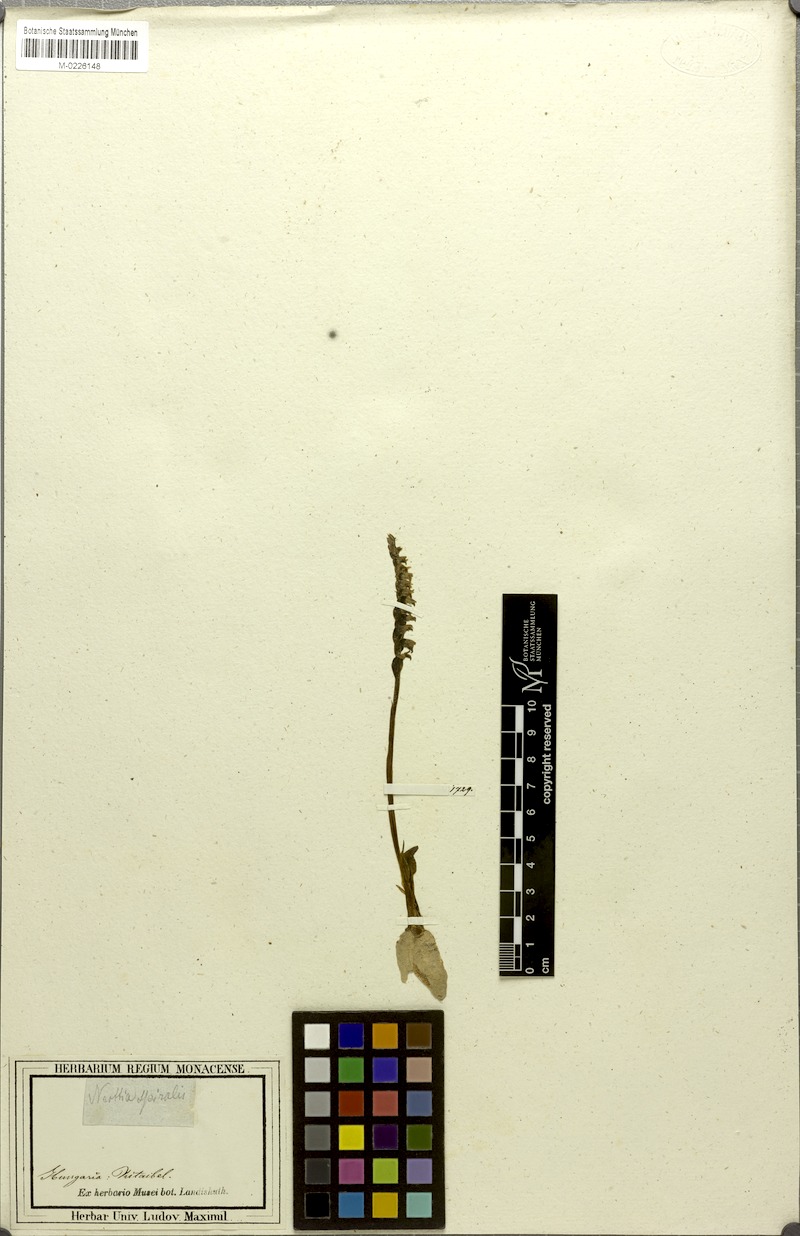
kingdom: Plantae
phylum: Tracheophyta
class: Liliopsida
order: Asparagales
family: Orchidaceae
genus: Spiranthes
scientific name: Spiranthes spiralis
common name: Autumn lady's-tresses
